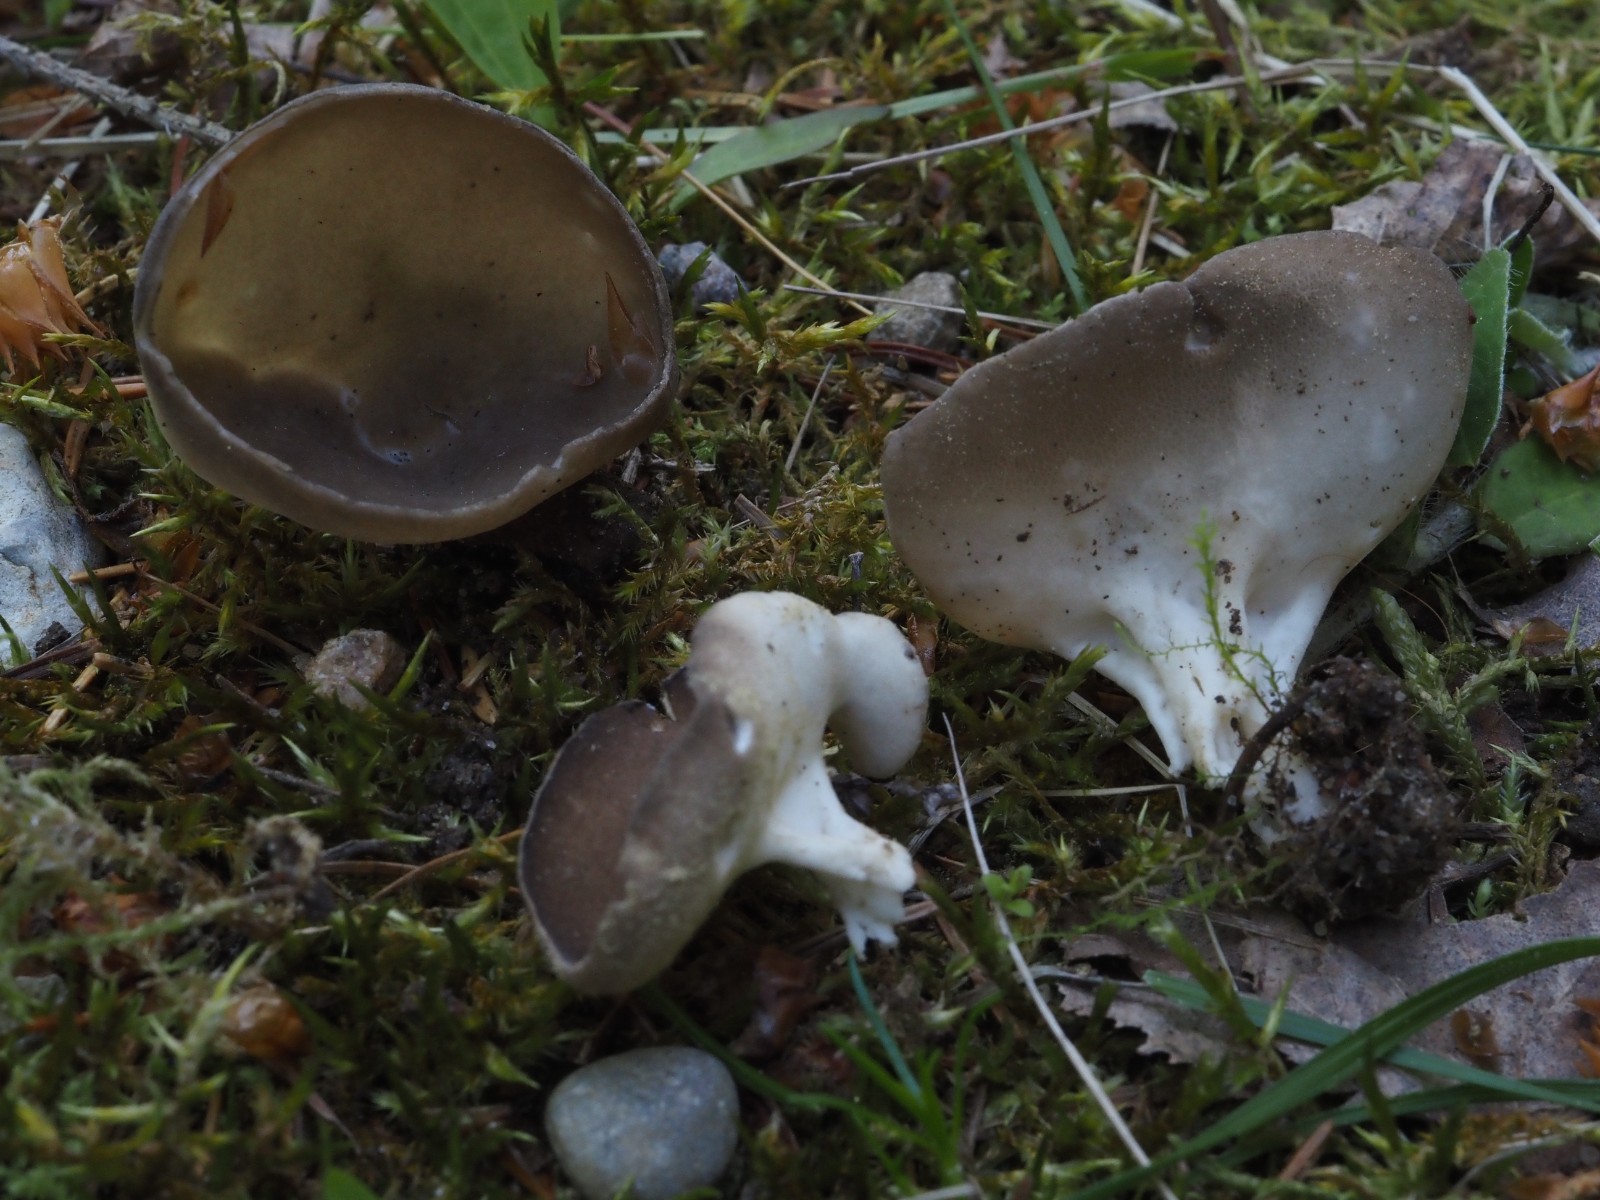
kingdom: Fungi
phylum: Ascomycota
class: Pezizomycetes
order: Pezizales
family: Helvellaceae
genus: Dissingia
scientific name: Dissingia confusa
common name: gran-foldhat
